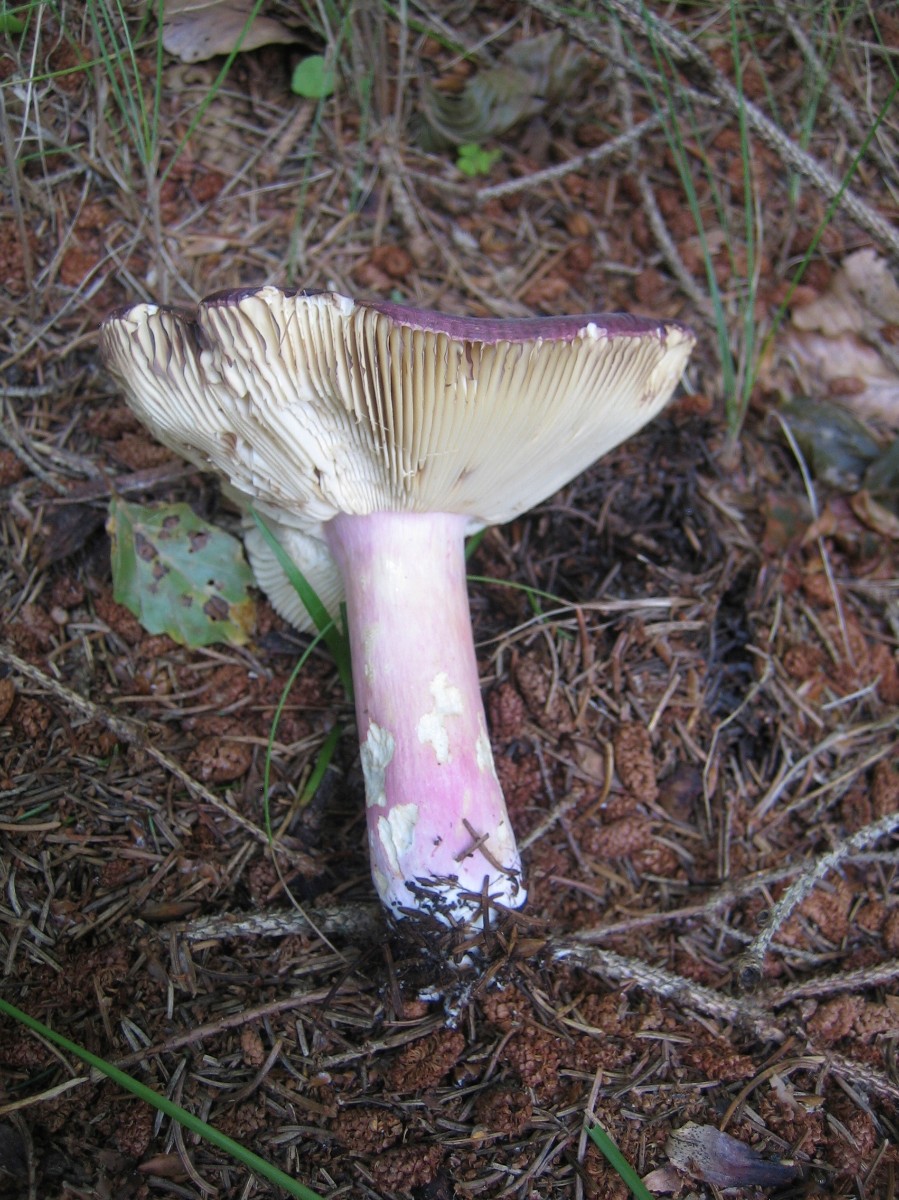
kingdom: Fungi
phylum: Basidiomycota
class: Agaricomycetes
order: Russulales
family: Russulaceae
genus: Russula
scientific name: Russula xerampelina
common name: hummer-skørhat
